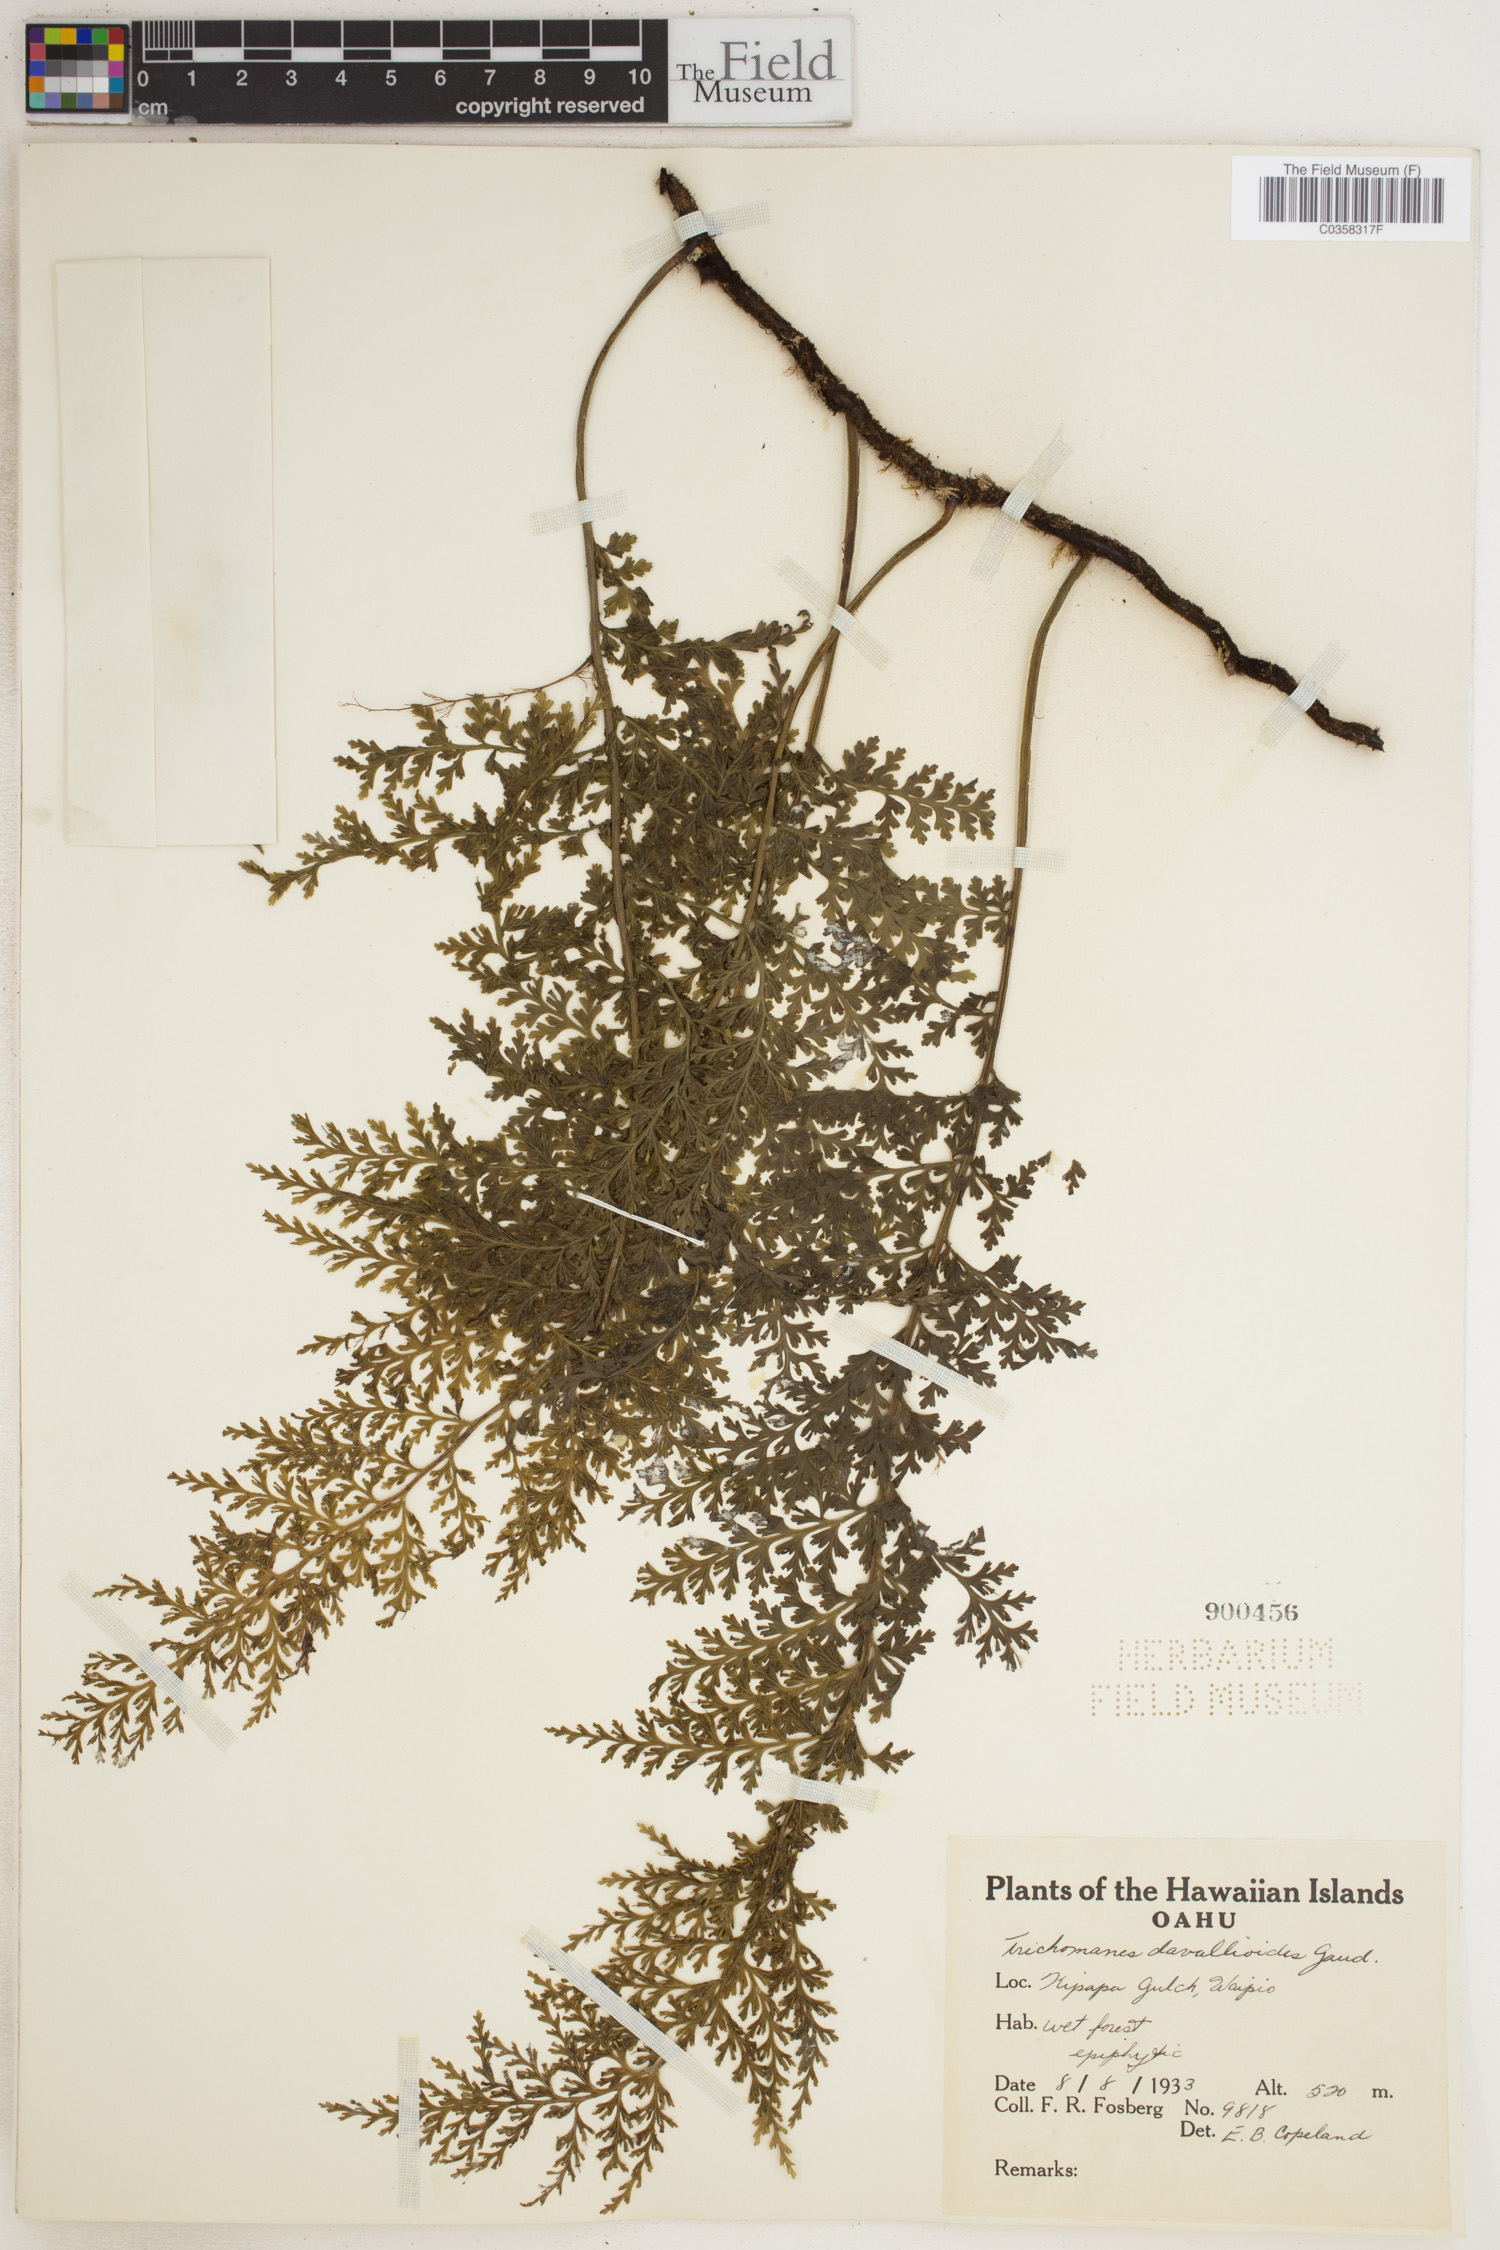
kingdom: Plantae
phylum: Tracheophyta
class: Polypodiopsida
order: Hymenophyllales
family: Hymenophyllaceae
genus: Trichomanes
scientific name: Trichomanes
